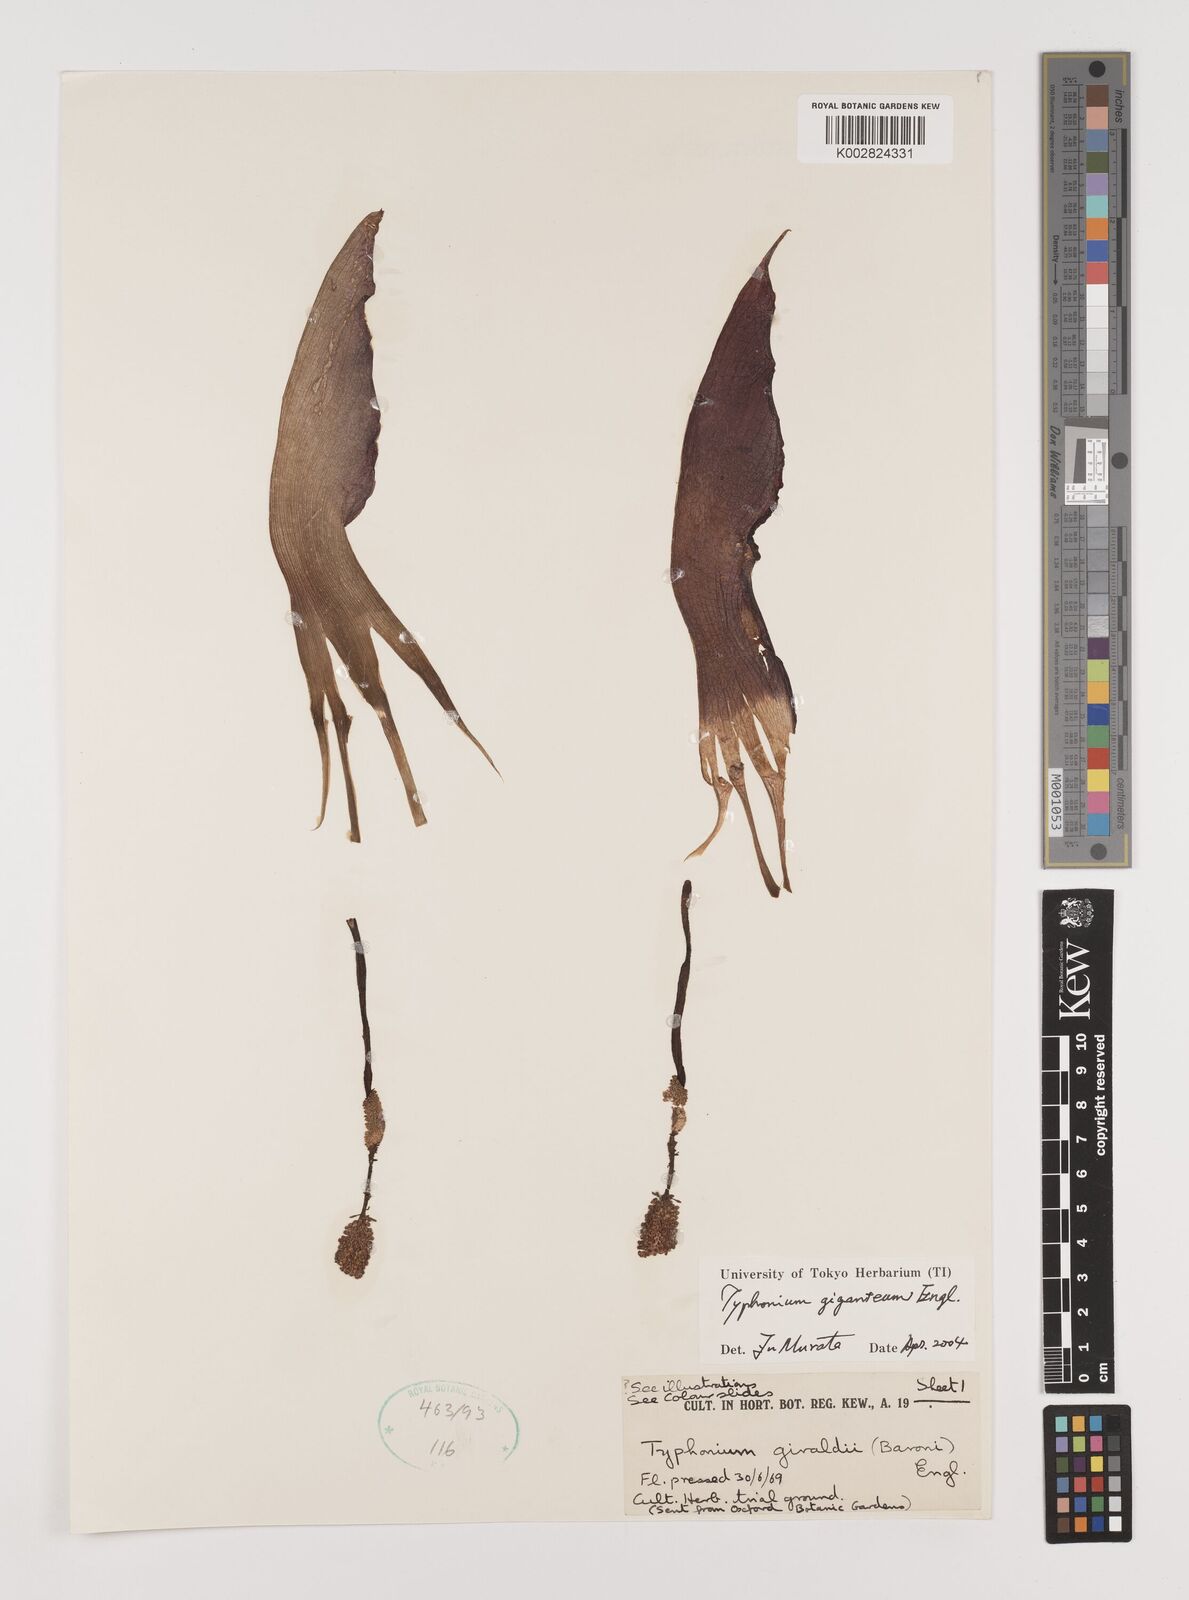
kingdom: Plantae
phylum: Tracheophyta
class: Liliopsida
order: Alismatales
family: Araceae
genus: Sauromatum
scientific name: Sauromatum giganteum
